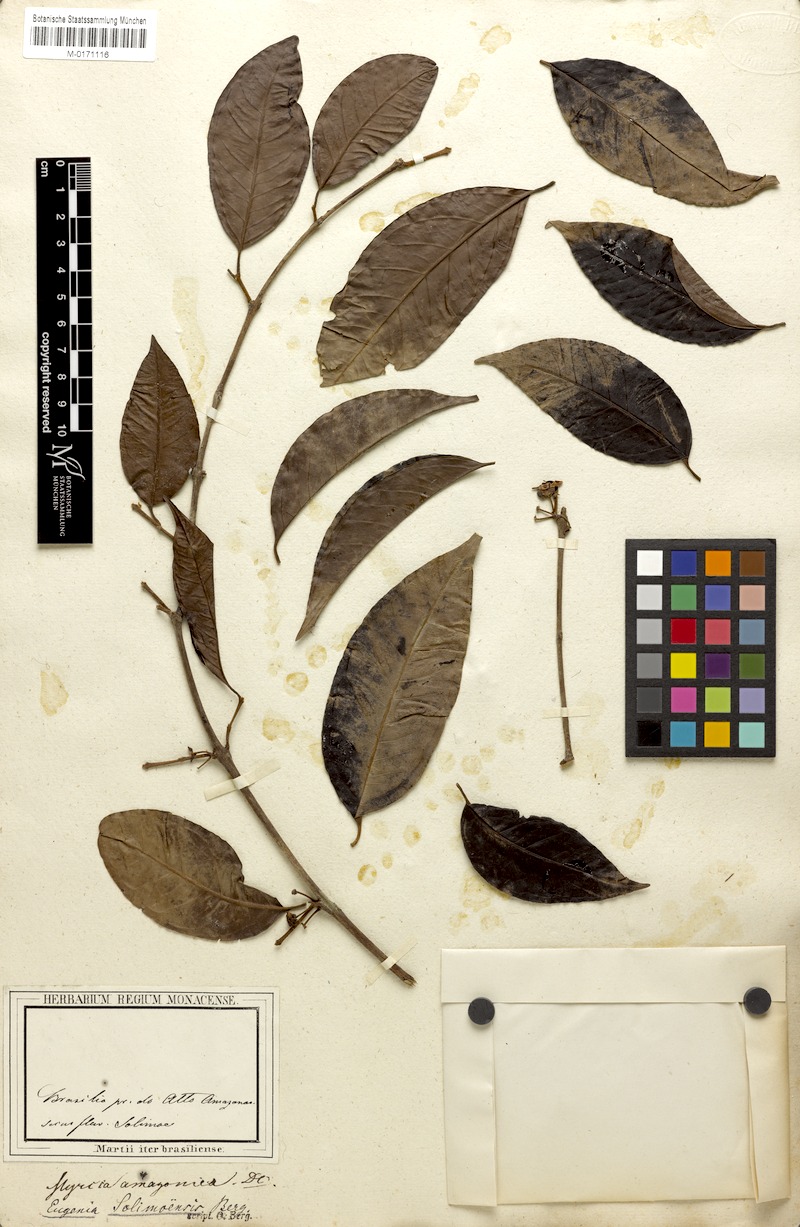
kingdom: Plantae
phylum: Tracheophyta
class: Magnoliopsida
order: Myrtales
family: Myrtaceae
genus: Myrcia
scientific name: Myrcia amazonica
